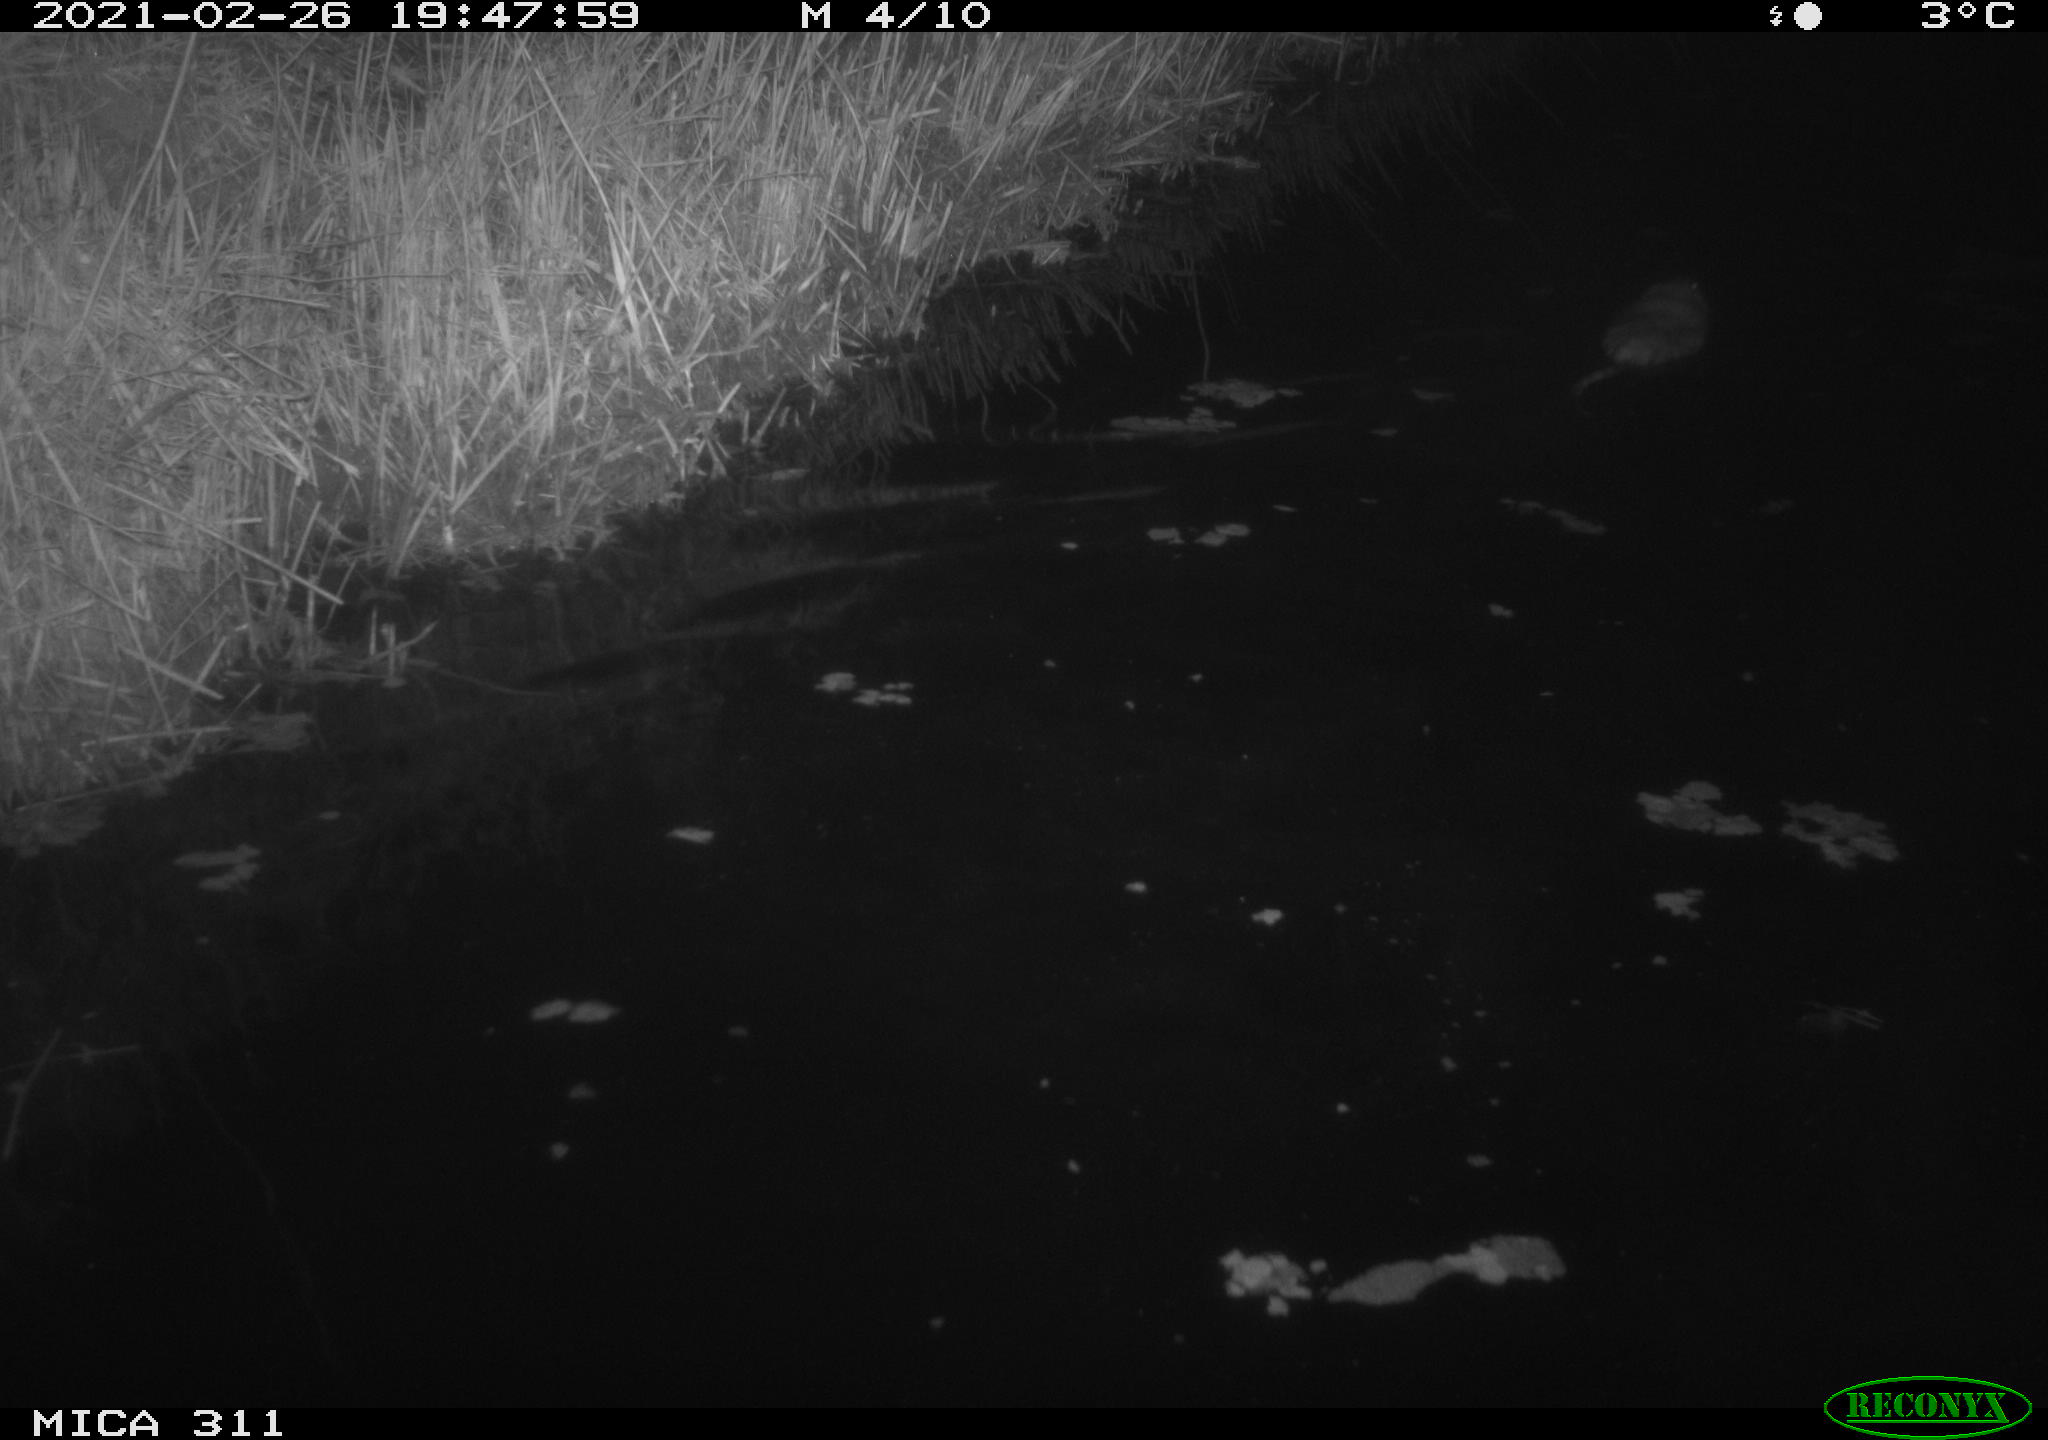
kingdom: Animalia
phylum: Chordata
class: Mammalia
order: Rodentia
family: Cricetidae
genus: Ondatra
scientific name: Ondatra zibethicus
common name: Muskrat
